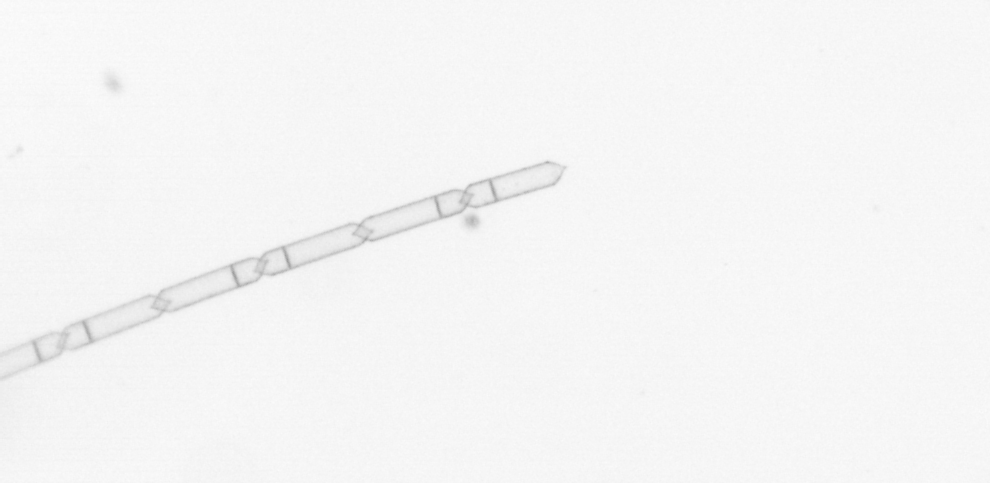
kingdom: Chromista
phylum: Ochrophyta
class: Bacillariophyceae
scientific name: Bacillariophyceae
